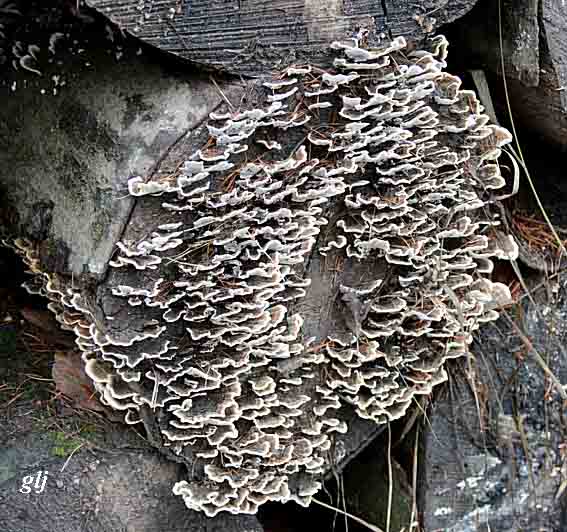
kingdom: Fungi
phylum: Basidiomycota
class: Agaricomycetes
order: Polyporales
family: Polyporaceae
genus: Trametes
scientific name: Trametes versicolor
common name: broget læderporesvamp
